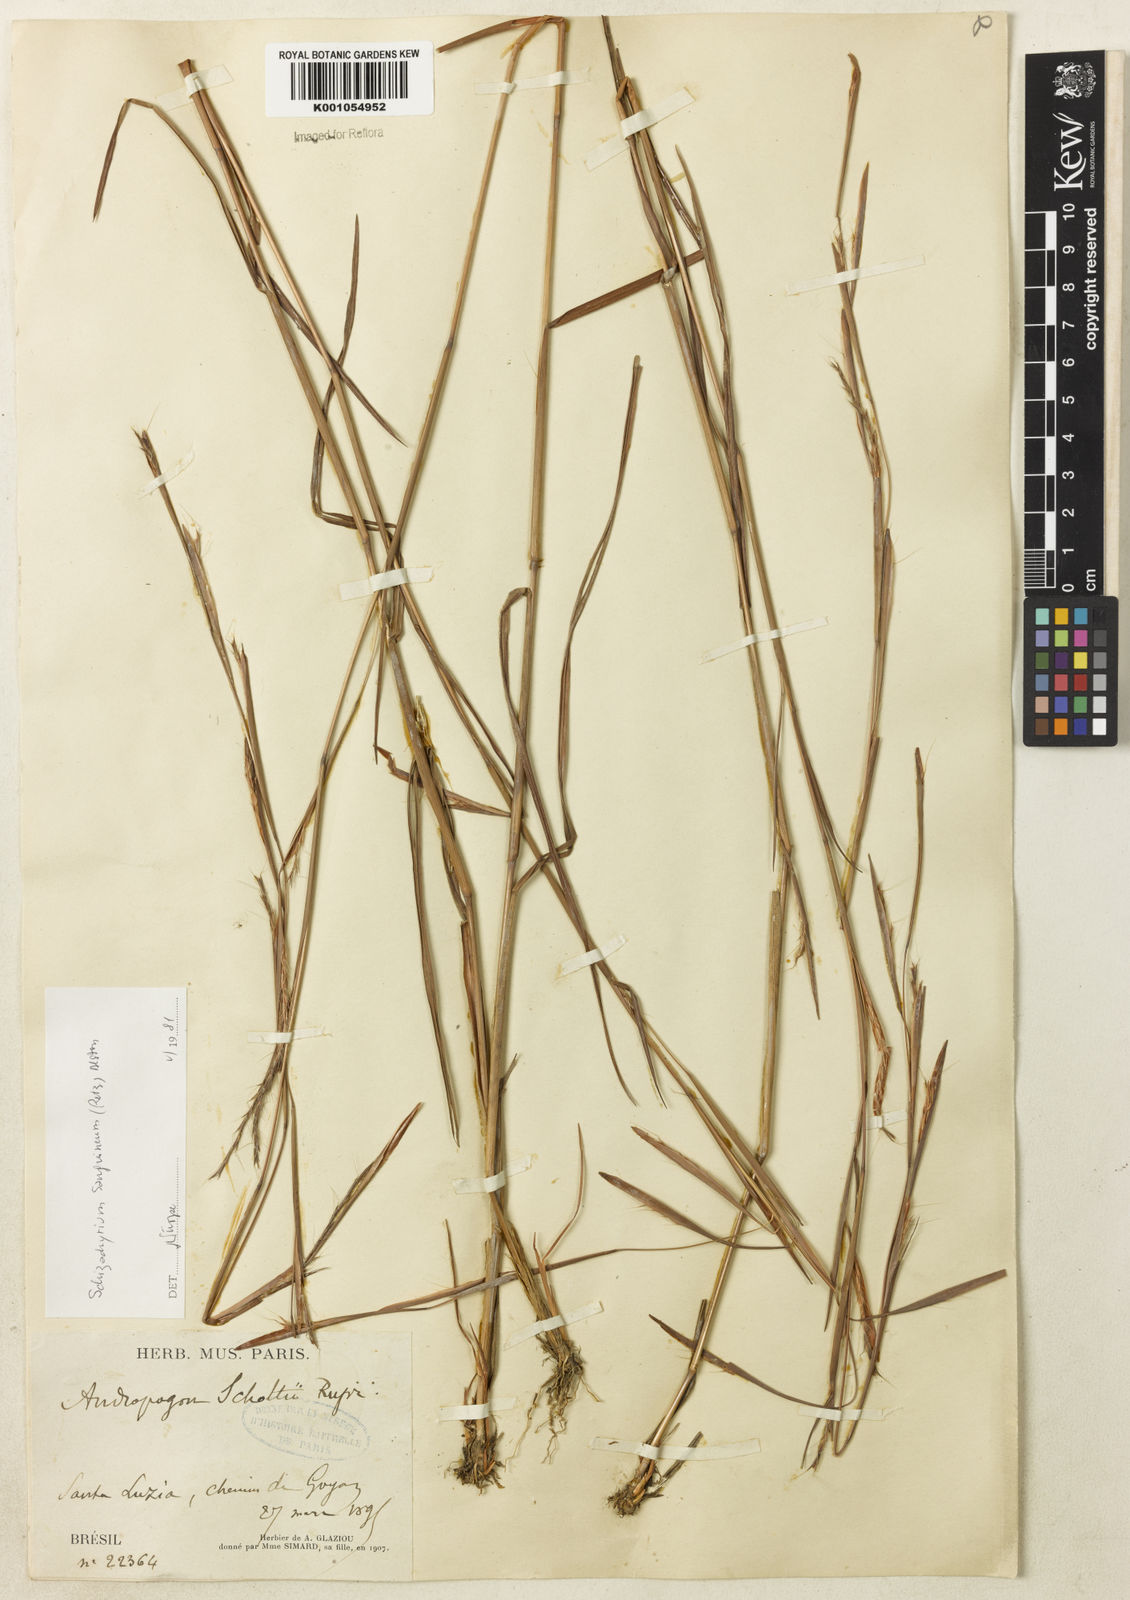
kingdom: Plantae
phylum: Tracheophyta
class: Liliopsida
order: Poales
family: Poaceae
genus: Schizachyrium
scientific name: Schizachyrium sanguineum
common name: Crimson bluestem
